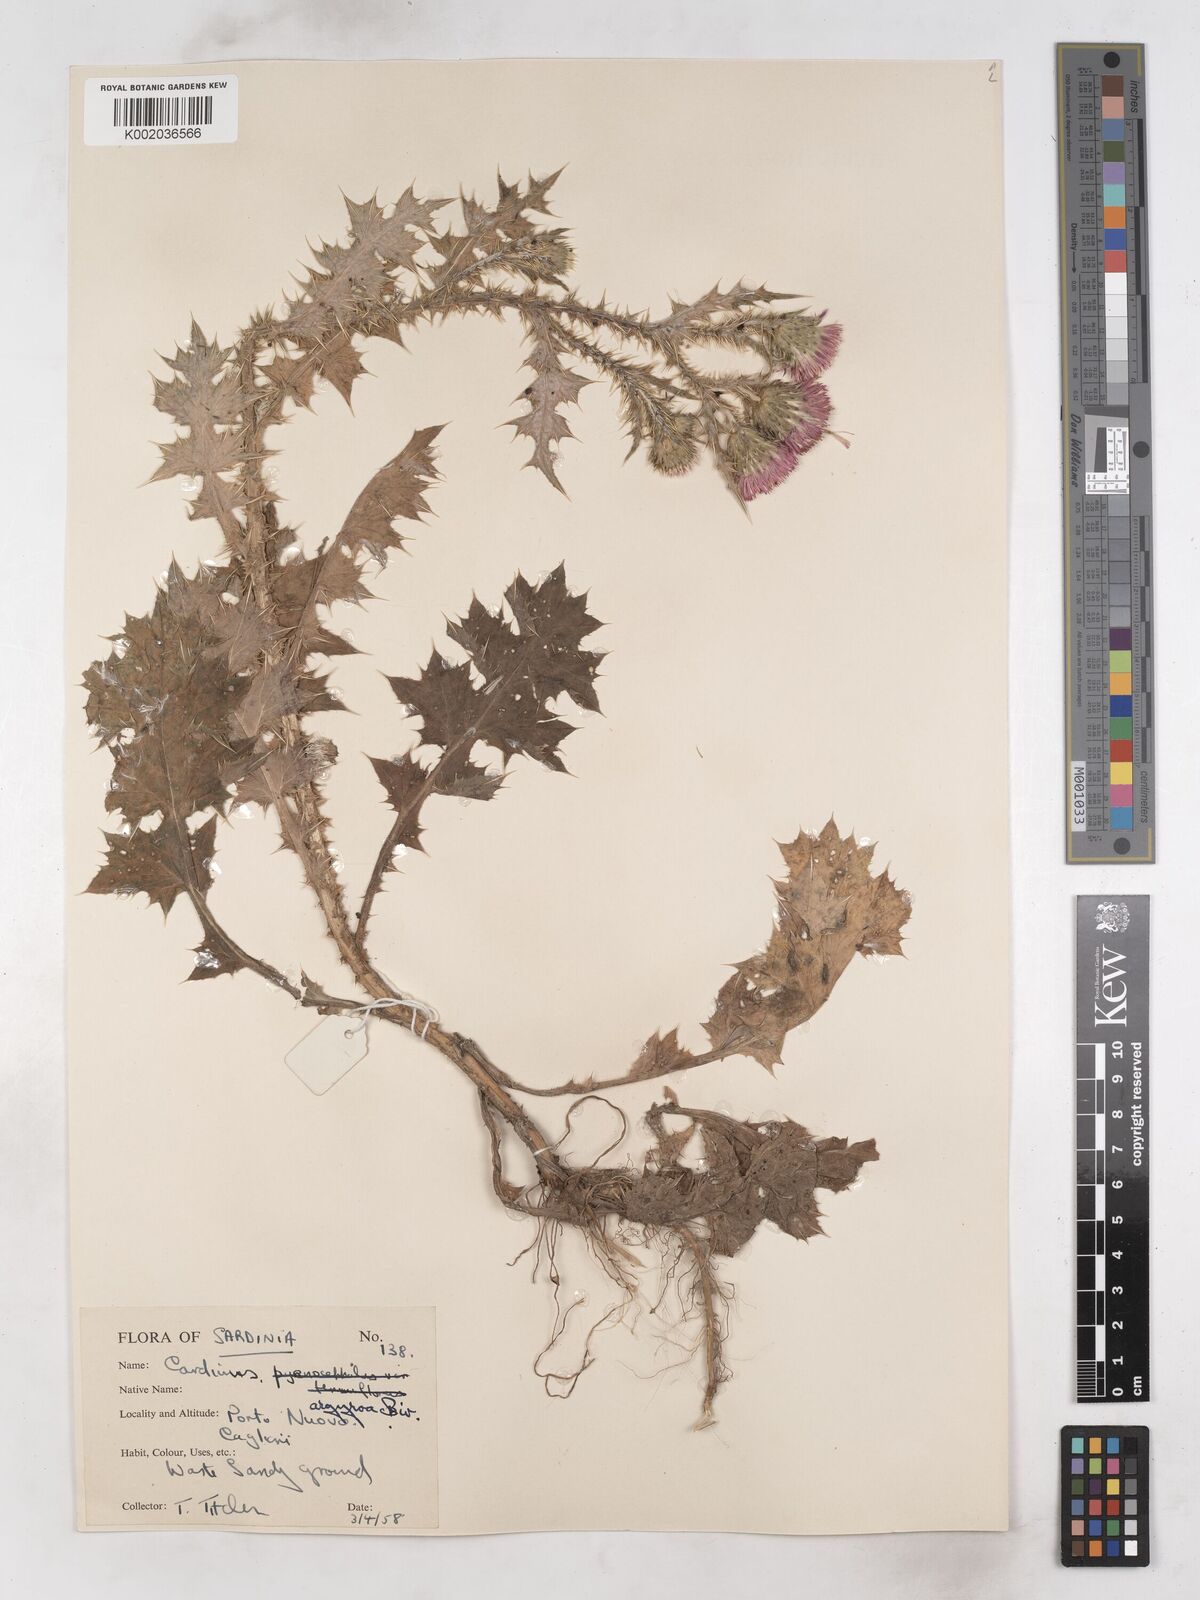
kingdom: Plantae
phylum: Tracheophyta
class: Magnoliopsida
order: Asterales
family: Asteraceae
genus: Carduus
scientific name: Carduus argyroa
